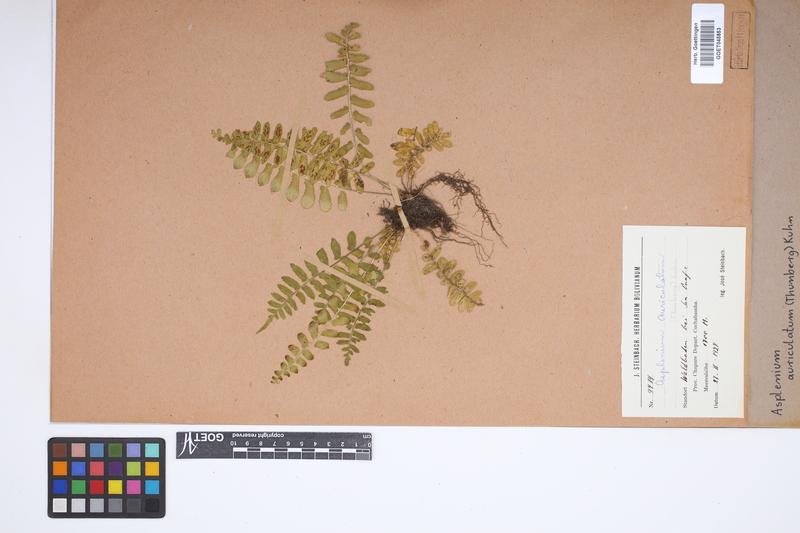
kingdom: Plantae
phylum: Tracheophyta
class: Polypodiopsida
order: Polypodiales
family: Aspleniaceae
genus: Asplenium
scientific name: Asplenium auriculatum
